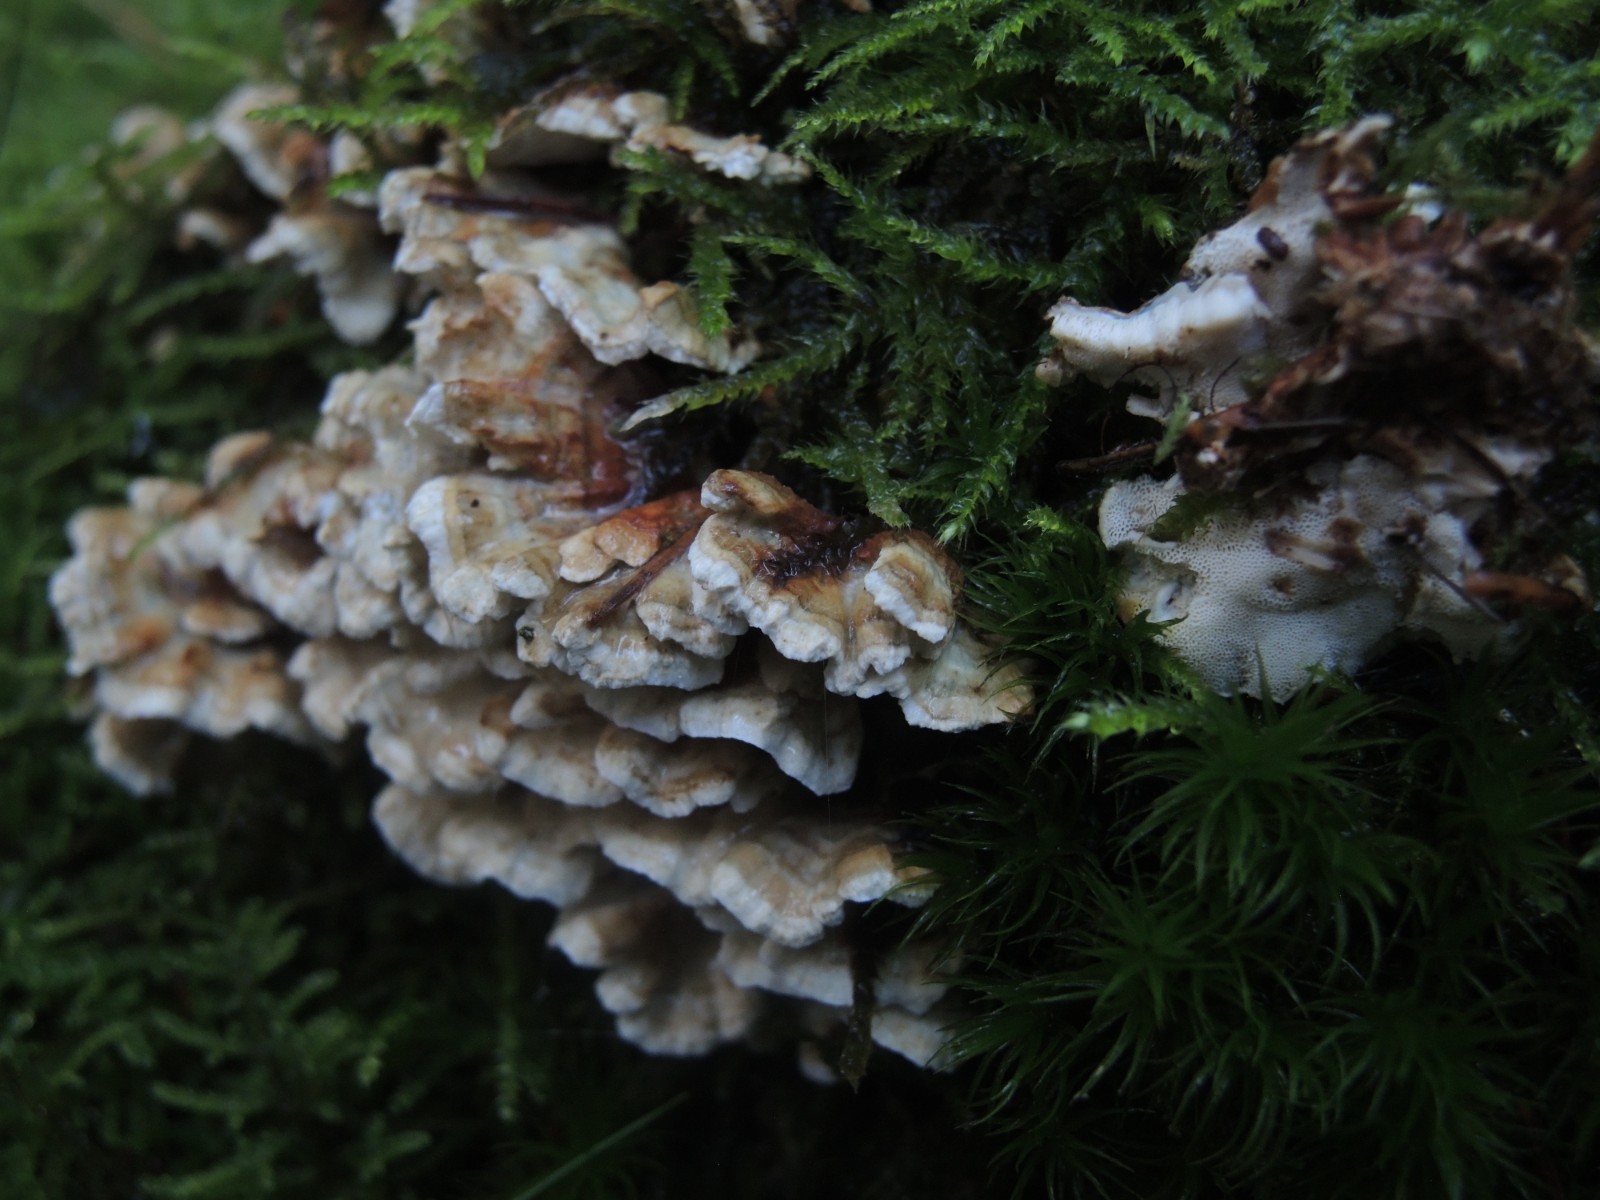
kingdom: Fungi
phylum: Basidiomycota
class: Agaricomycetes
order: Polyporales
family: Dacryobolaceae
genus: Oligoporus
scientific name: Oligoporus wakefieldiae
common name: række-kødporesvamp
